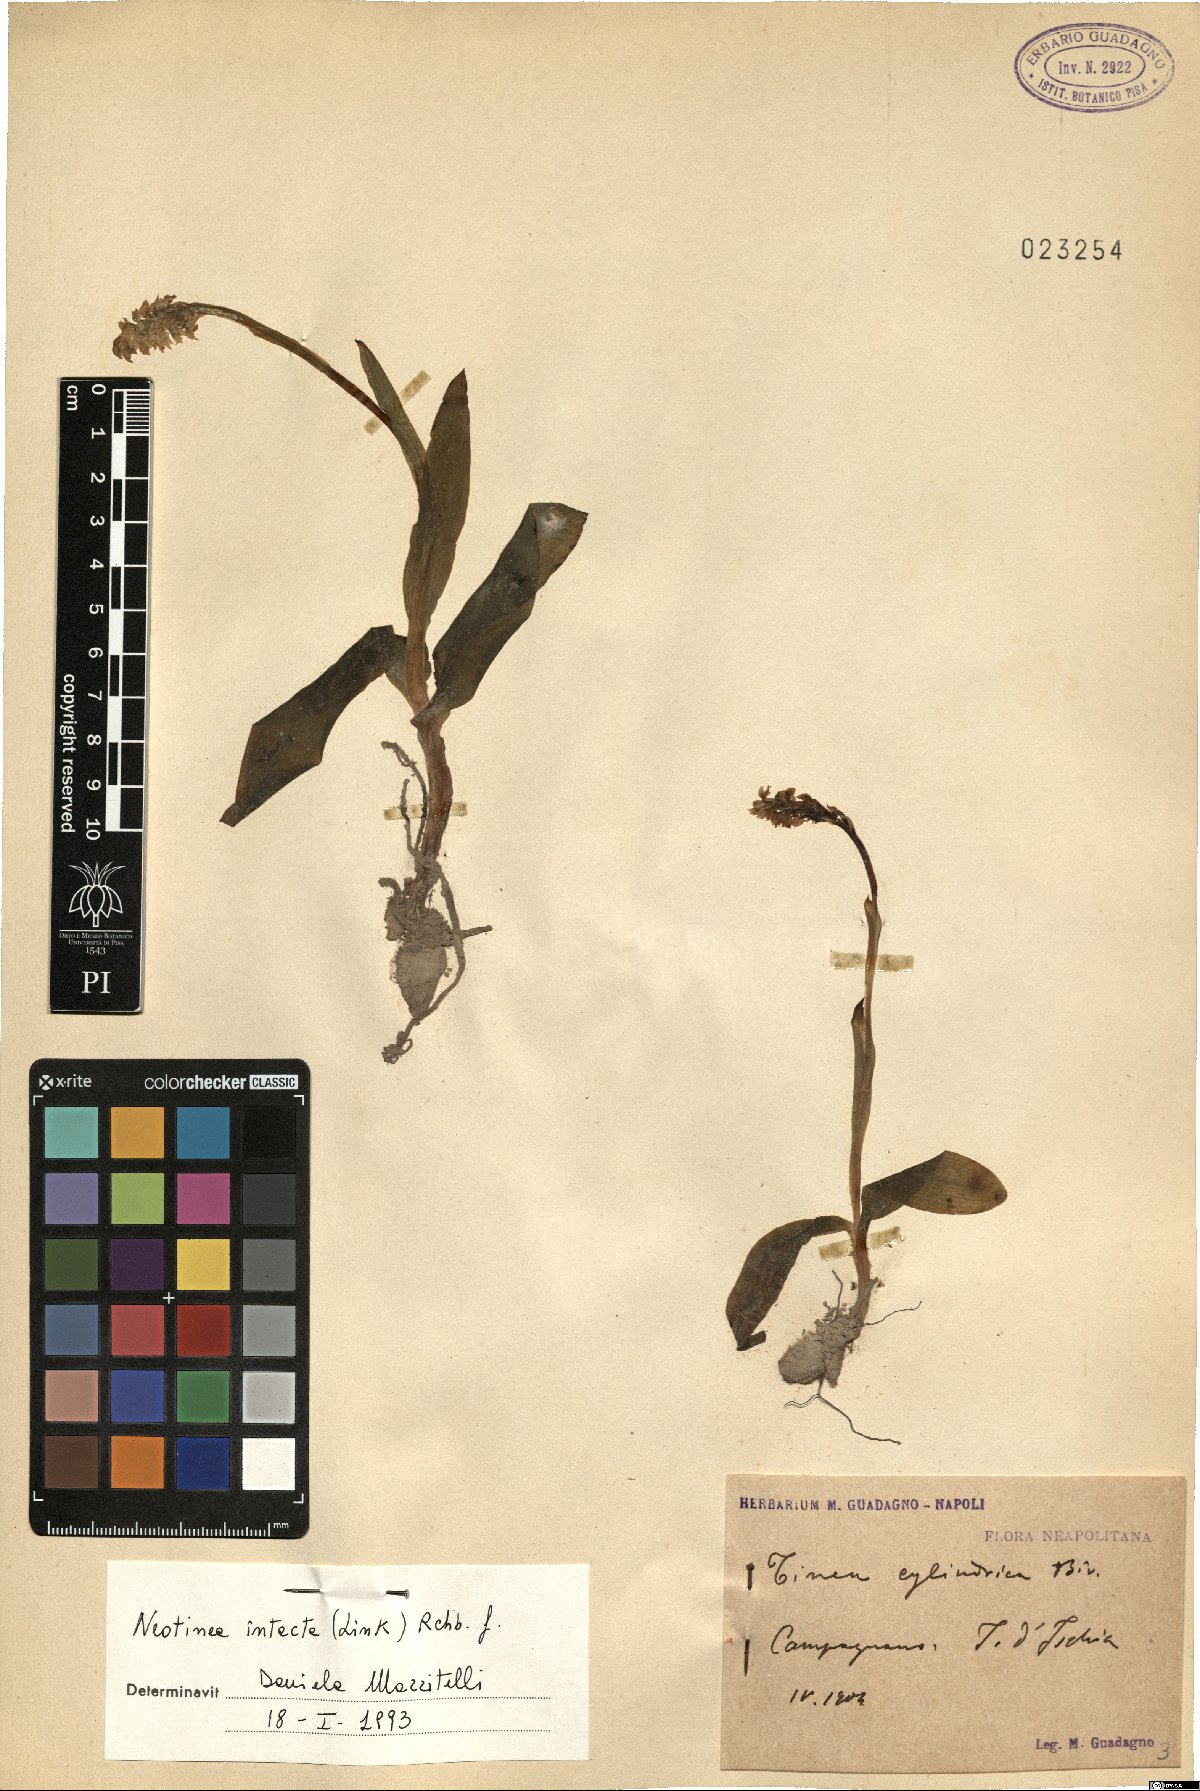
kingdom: Plantae
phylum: Tracheophyta
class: Liliopsida
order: Asparagales
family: Orchidaceae
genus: Neotinea
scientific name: Neotinea maculata
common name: Dense-flowered orchid
